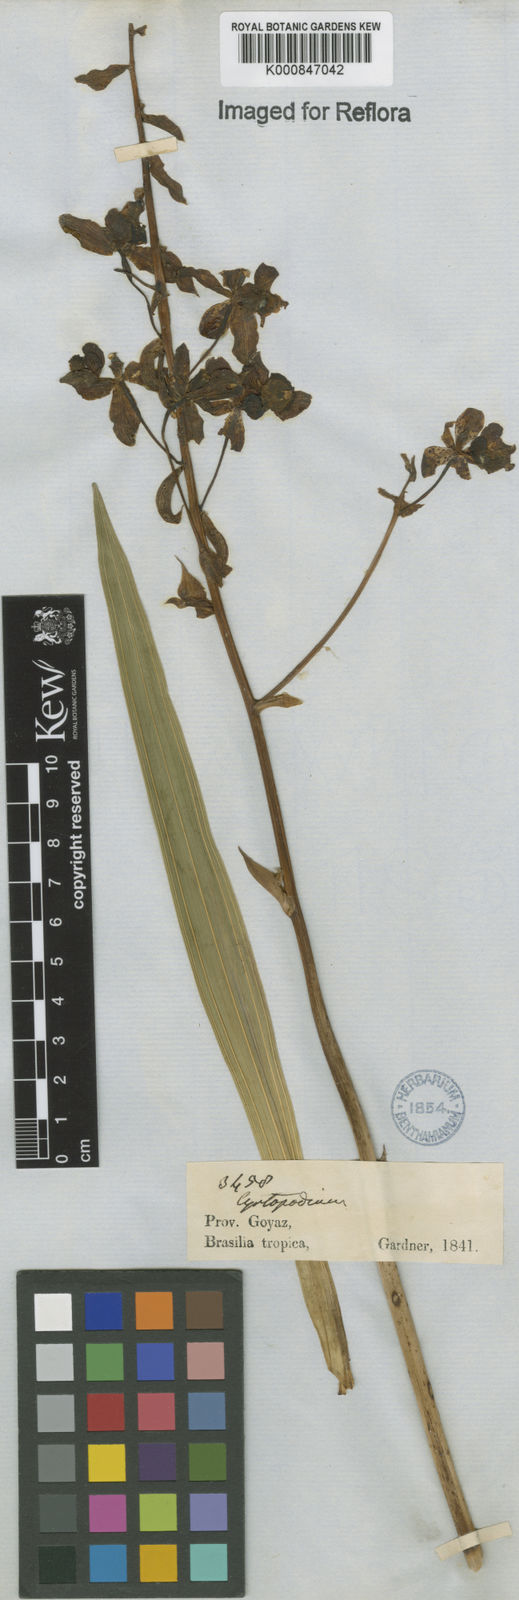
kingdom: Plantae
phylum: Tracheophyta
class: Liliopsida
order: Asparagales
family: Orchidaceae
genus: Cyrtopodium
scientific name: Cyrtopodium punctatum
